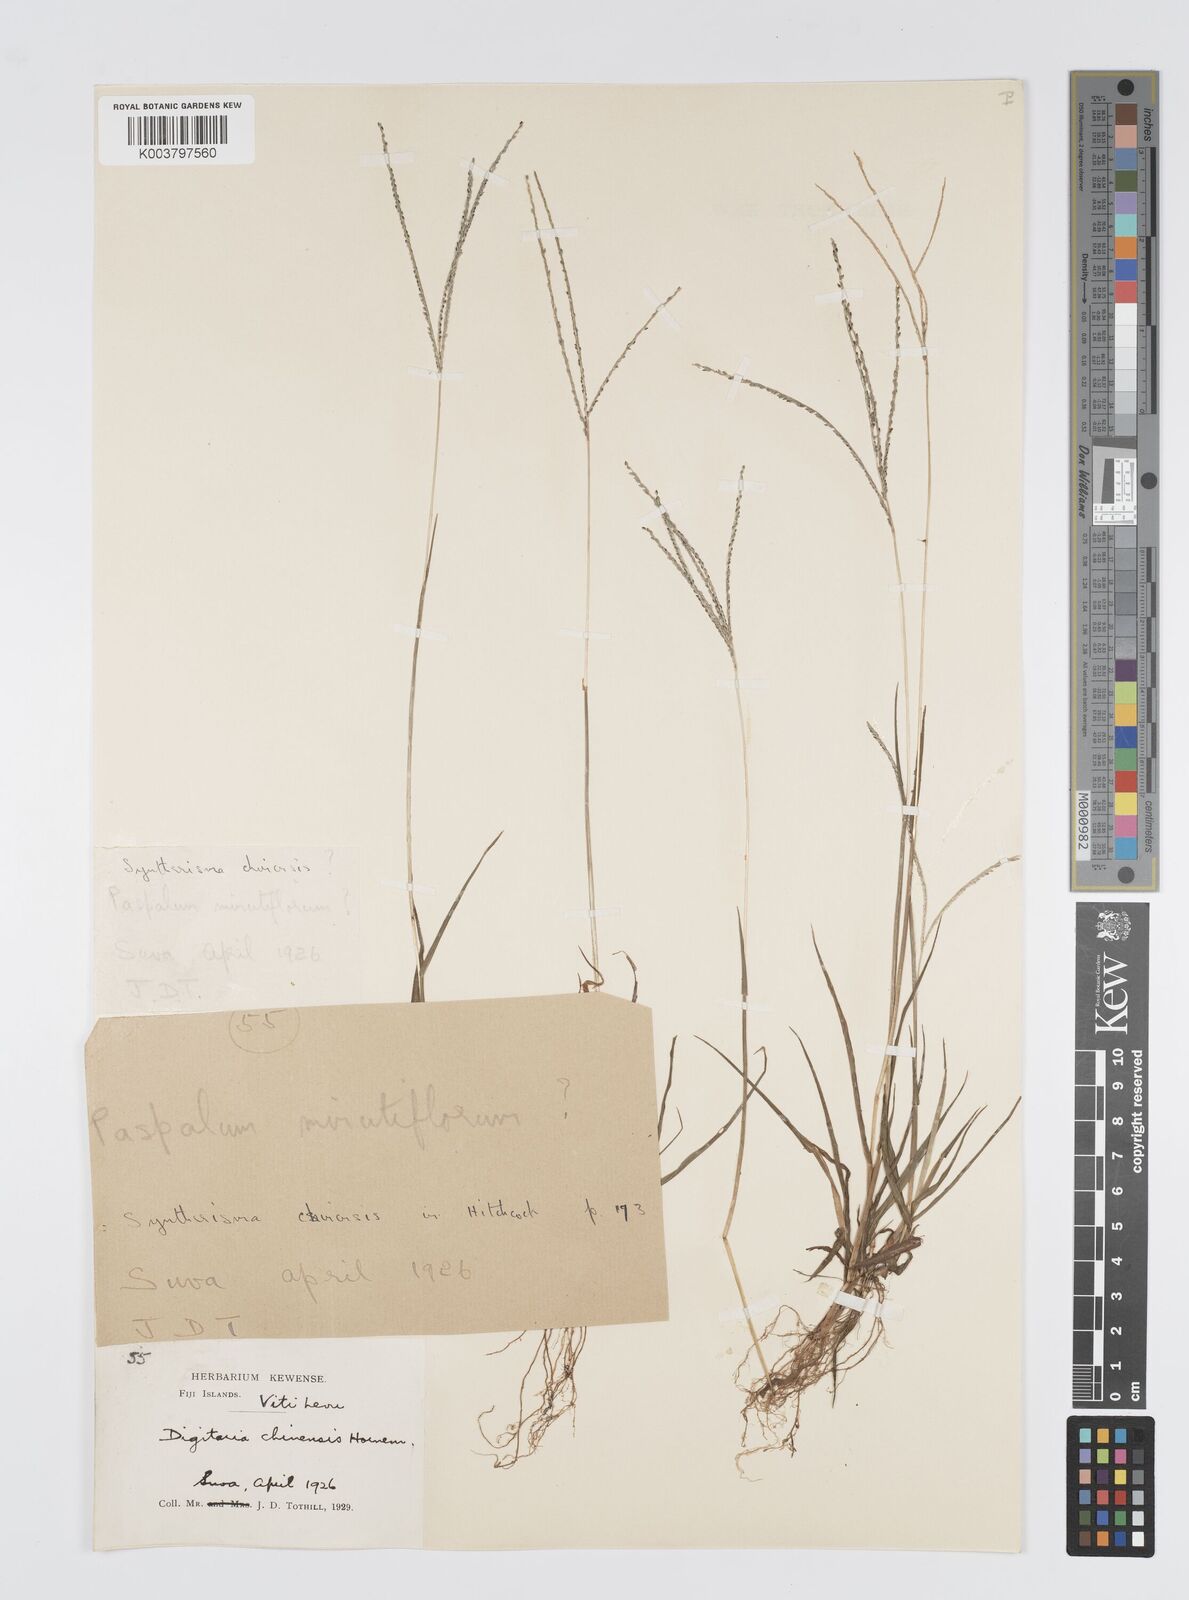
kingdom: Plantae
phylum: Tracheophyta
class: Liliopsida
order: Poales
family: Poaceae
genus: Digitaria
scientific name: Digitaria violascens
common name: Violet crabgrass
